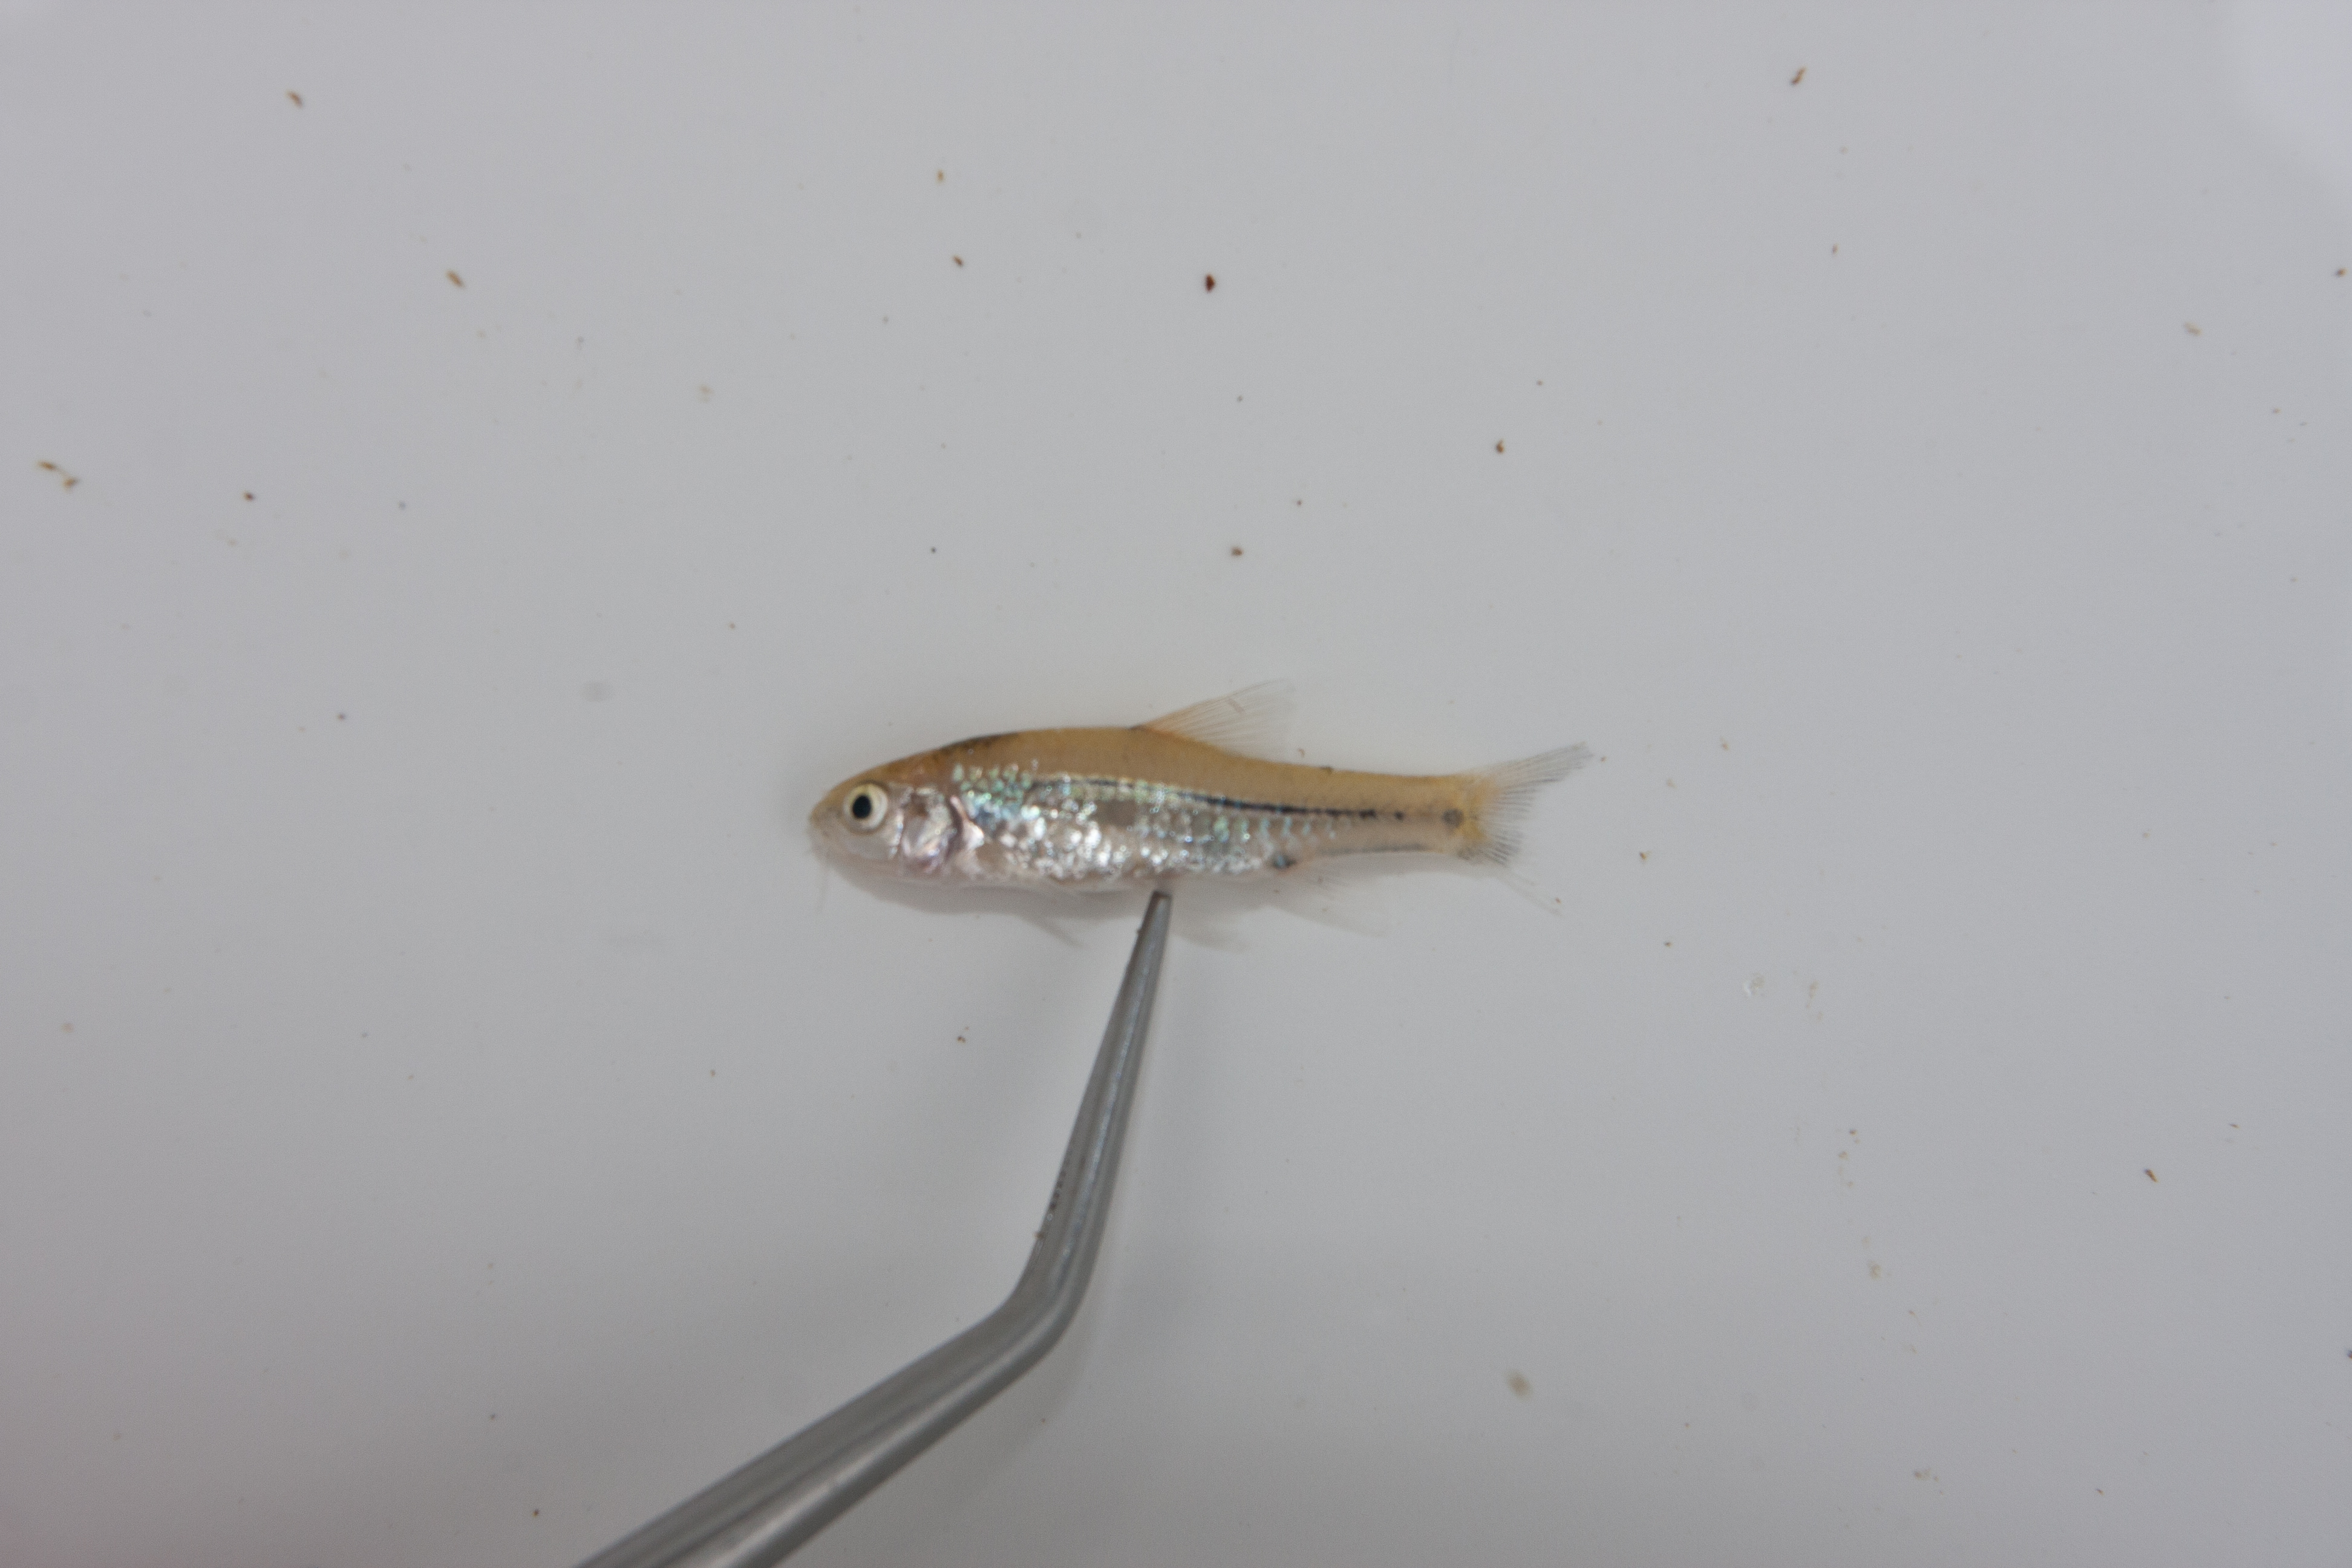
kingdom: Animalia
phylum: Chordata
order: Cypriniformes
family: Cyprinidae
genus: Enteromius
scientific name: Enteromius viviparus
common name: Bowstripe barb
